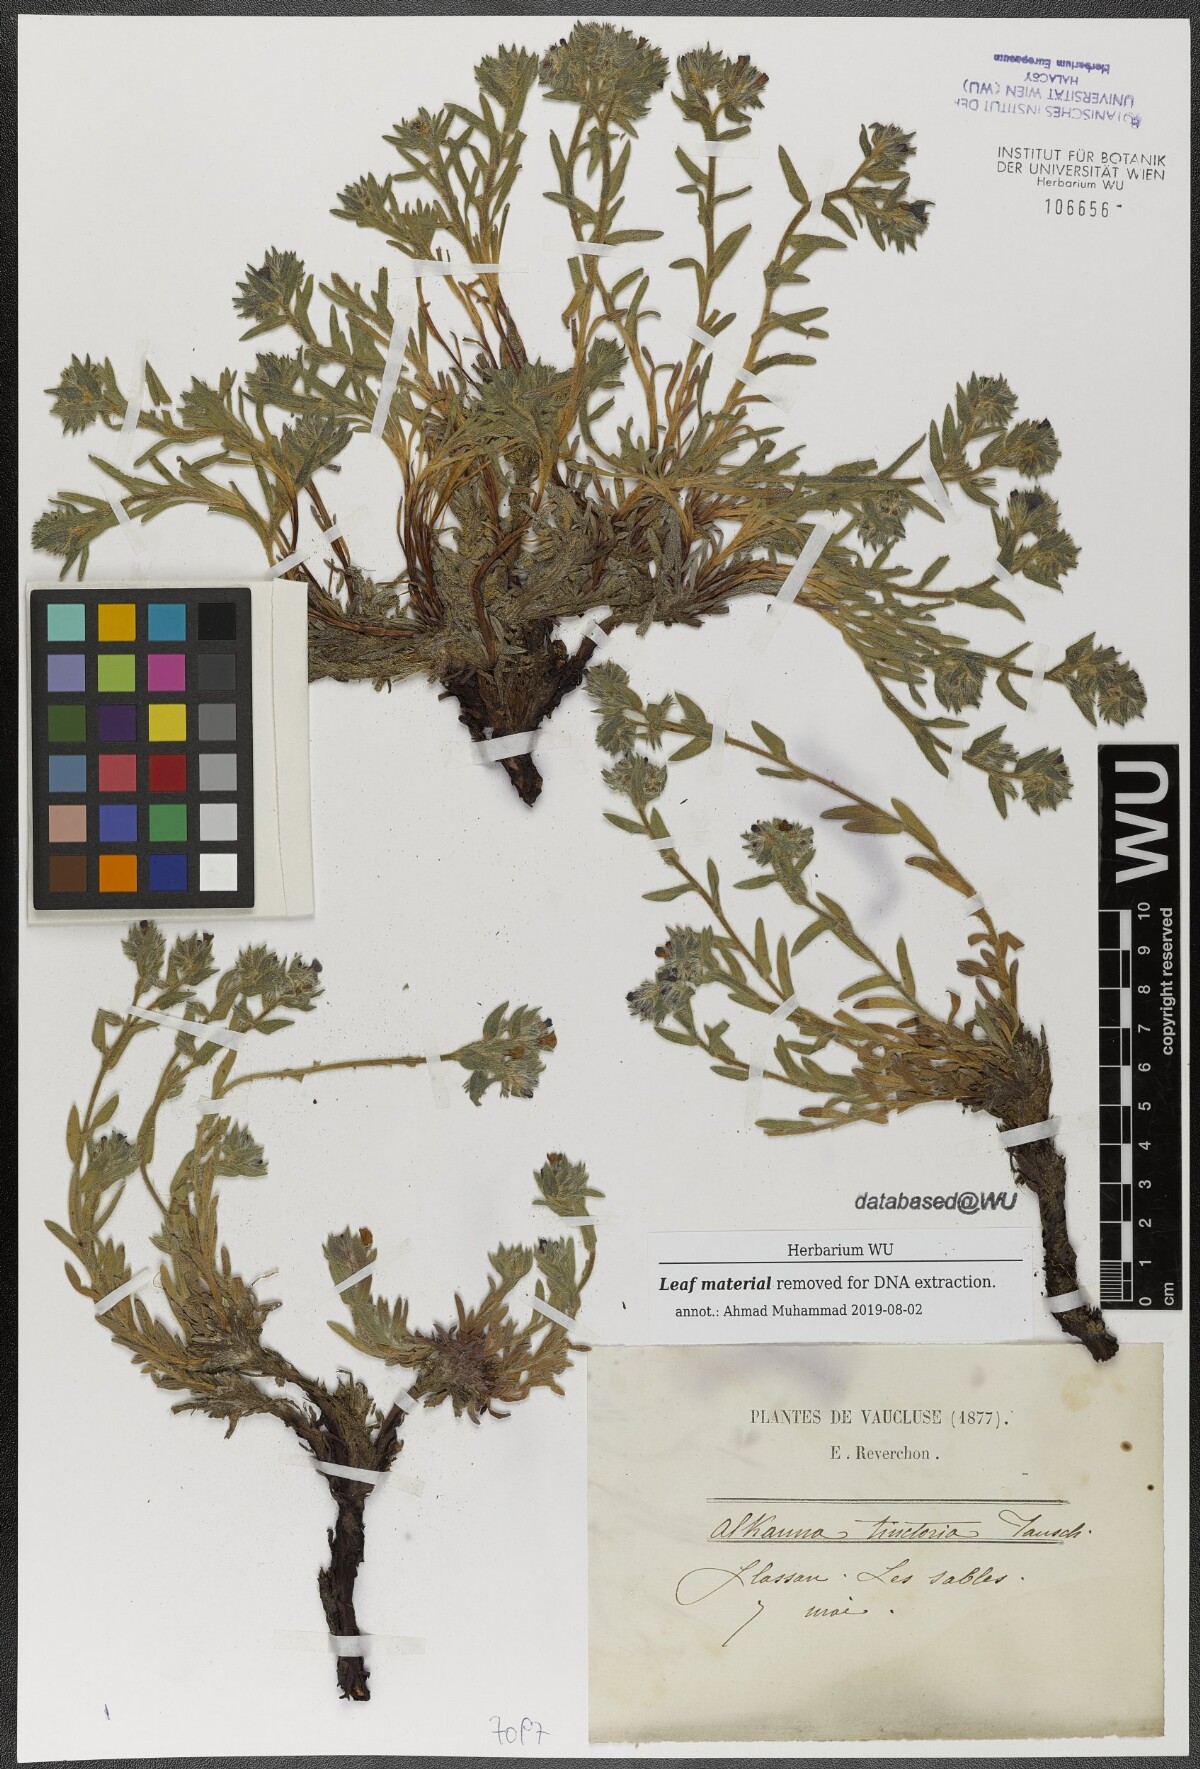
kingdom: Plantae
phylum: Tracheophyta
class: Magnoliopsida
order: Boraginales
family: Boraginaceae
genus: Alkanna
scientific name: Alkanna tinctoria
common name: Dyer's-alkanet
